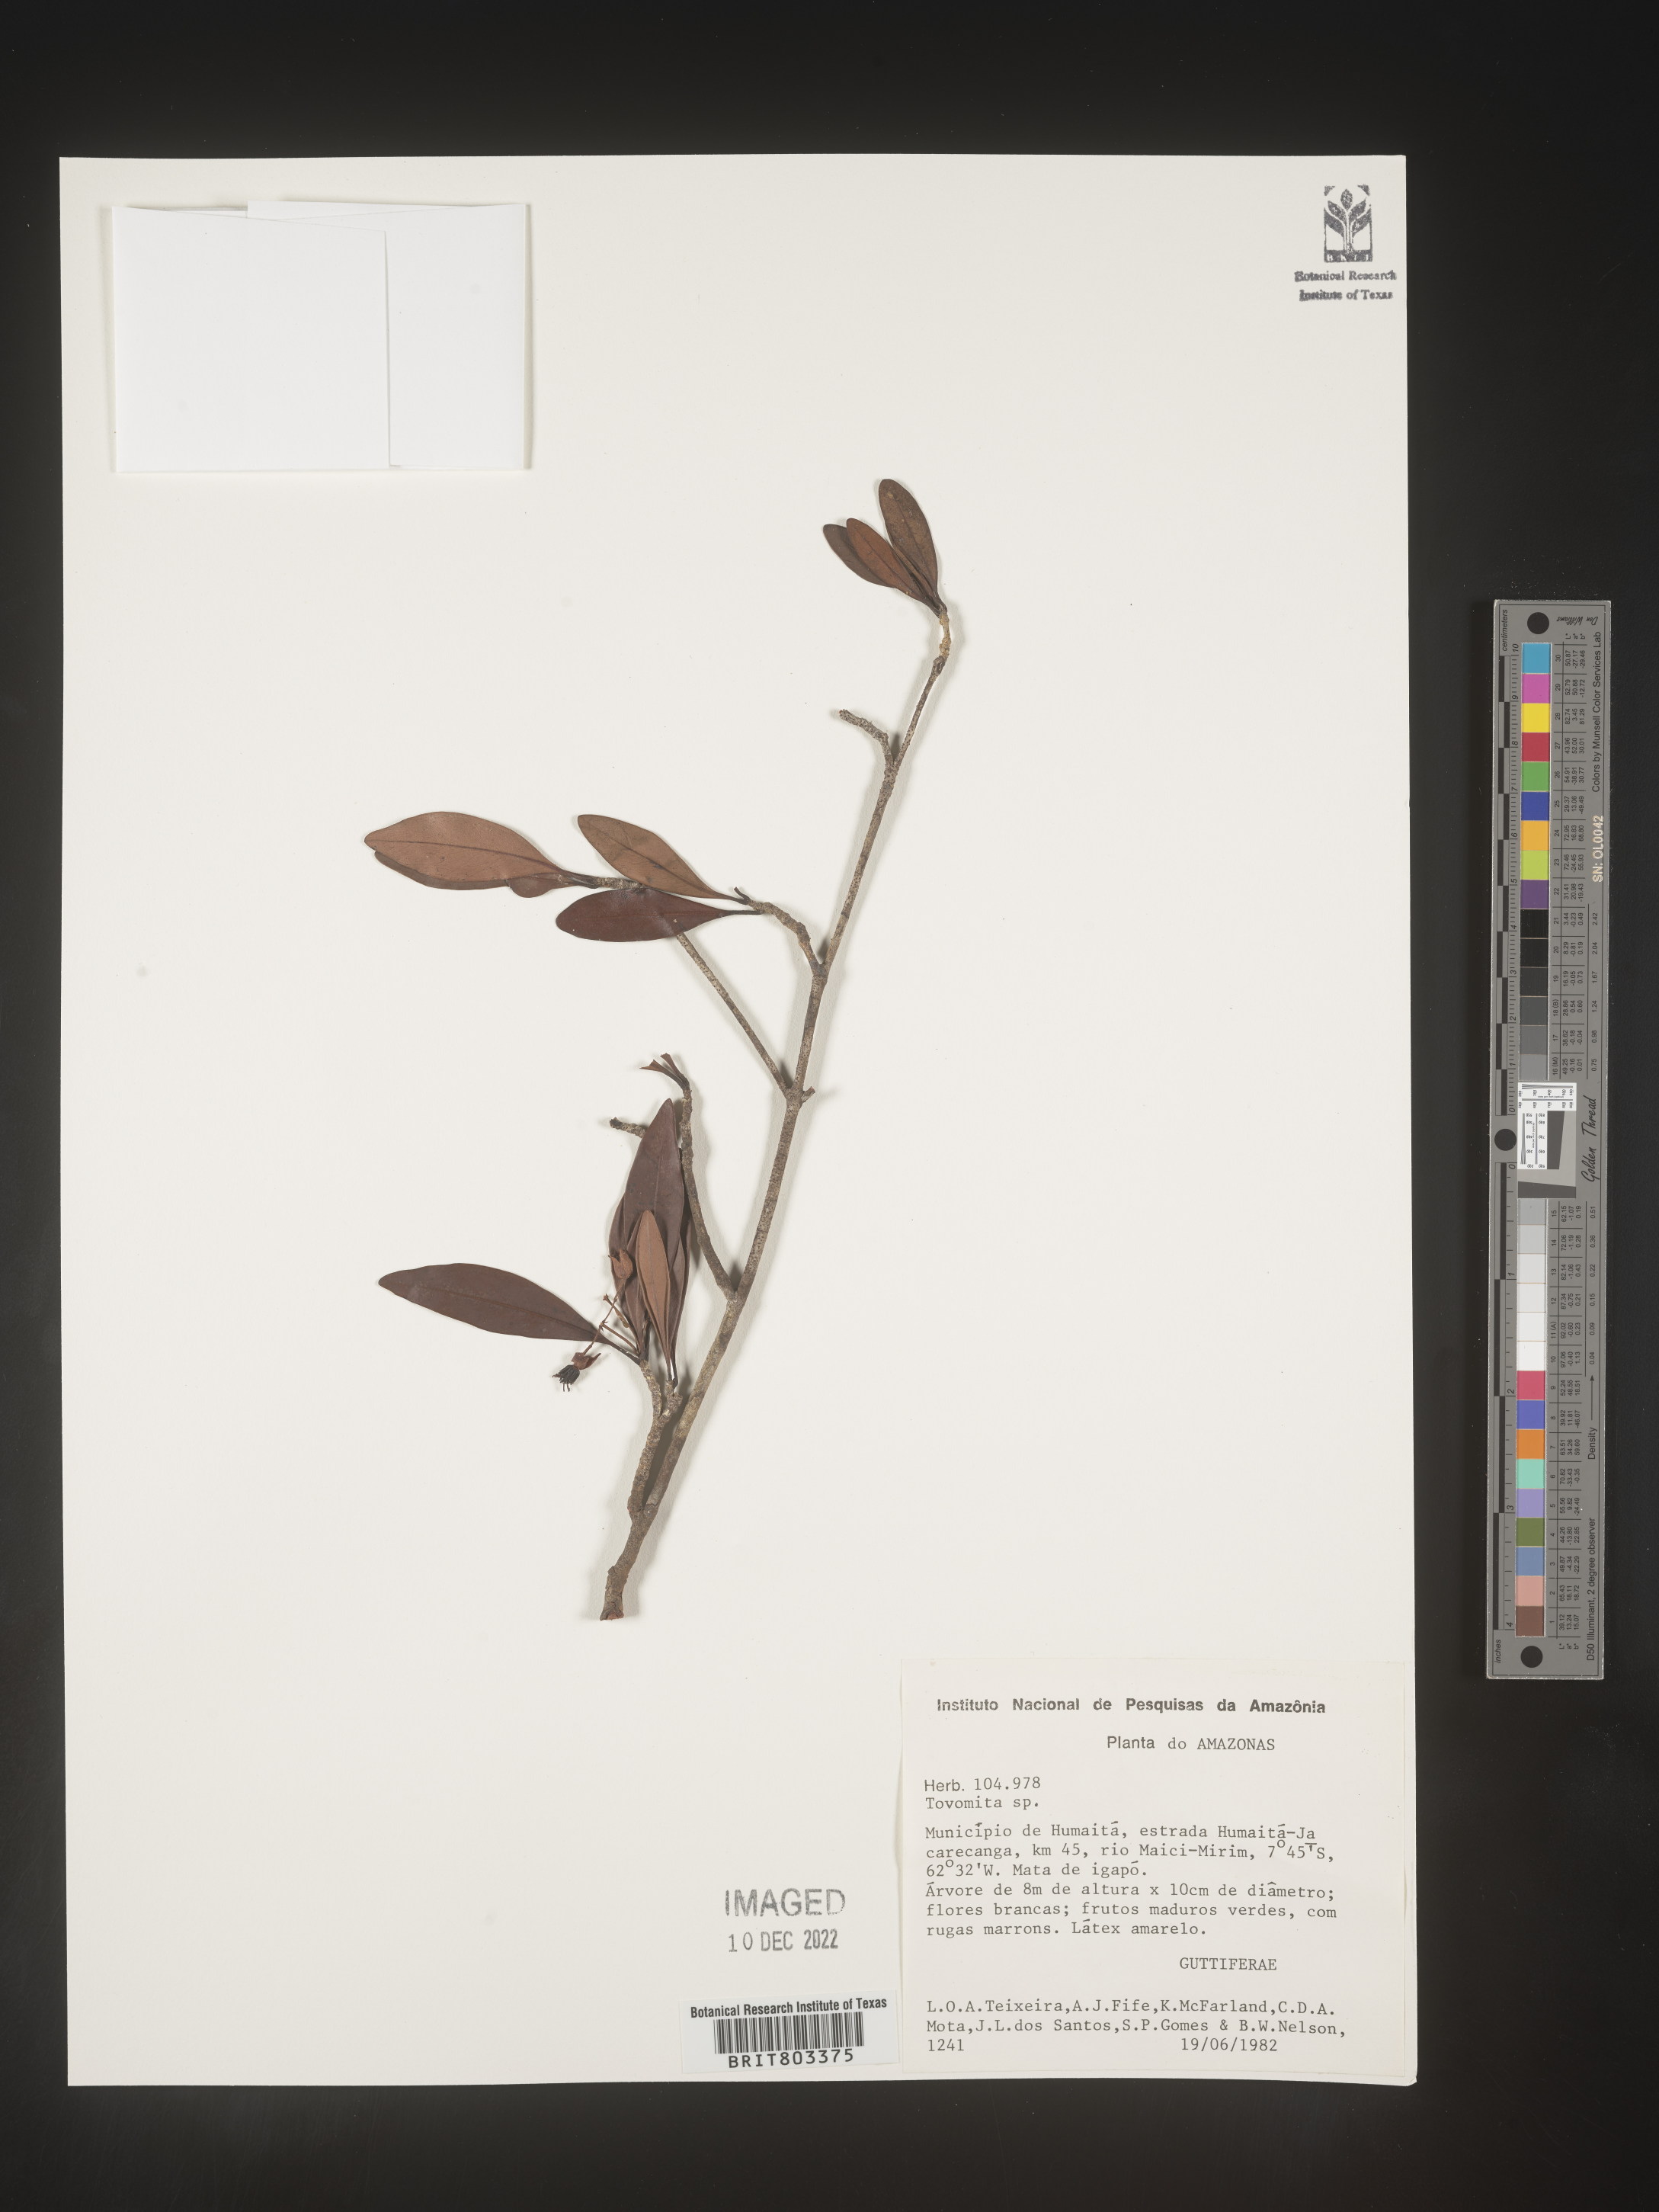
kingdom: Plantae
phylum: Tracheophyta
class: Magnoliopsida
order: Malpighiales
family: Clusiaceae
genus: Tovomita
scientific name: Tovomita
